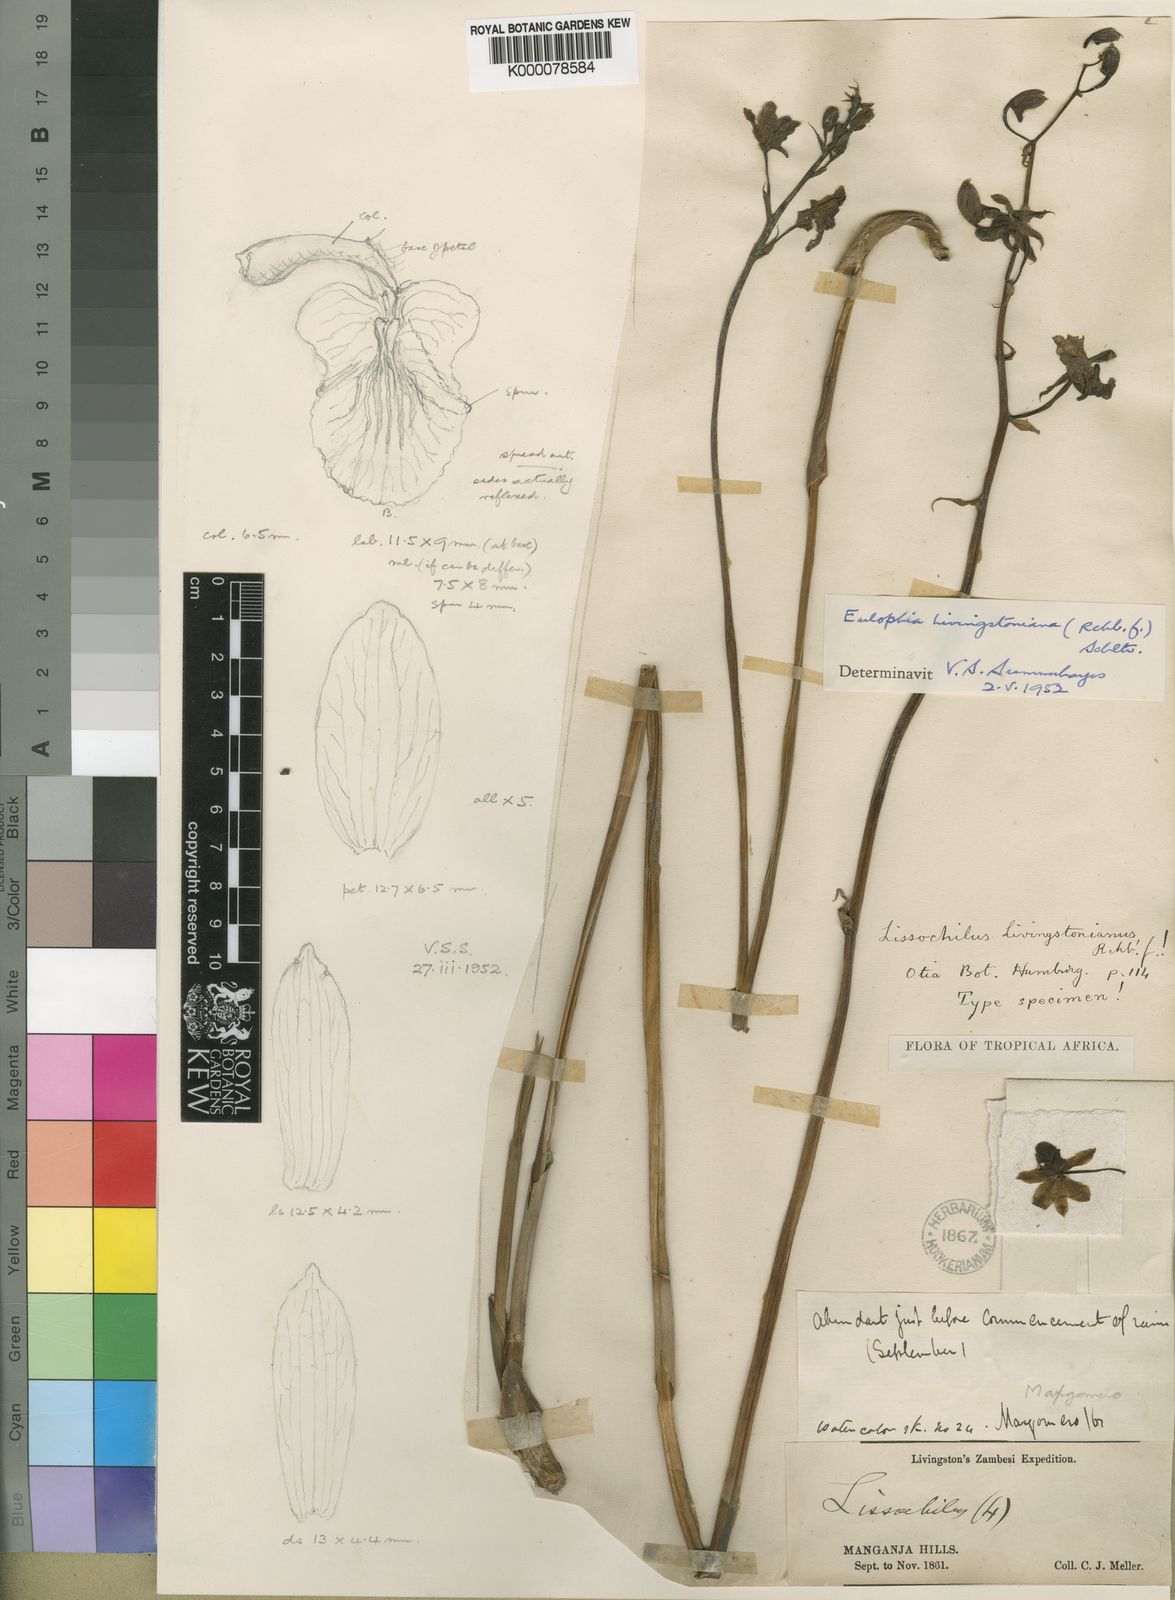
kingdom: Plantae
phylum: Tracheophyta
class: Liliopsida
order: Asparagales
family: Orchidaceae
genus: Eulophia
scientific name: Eulophia
